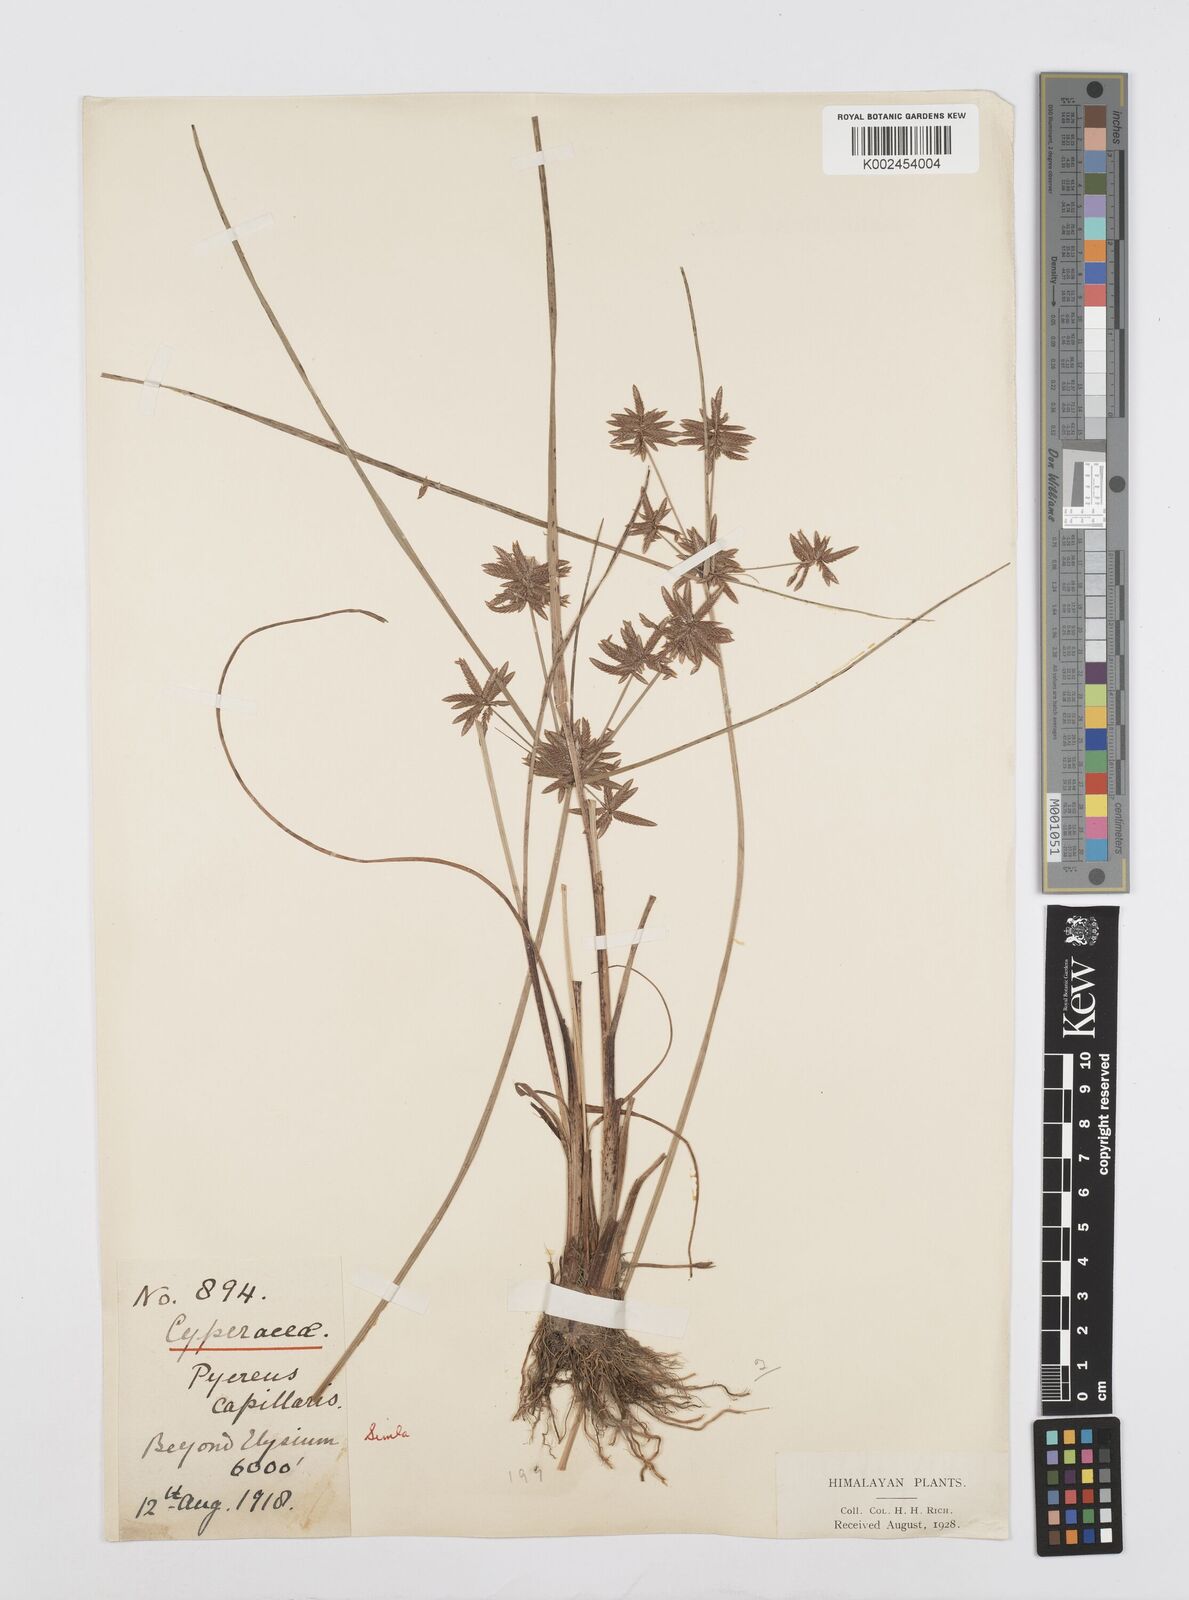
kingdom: Plantae
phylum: Tracheophyta
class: Liliopsida
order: Poales
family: Cyperaceae
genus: Cyperus
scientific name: Cyperus flavidus
